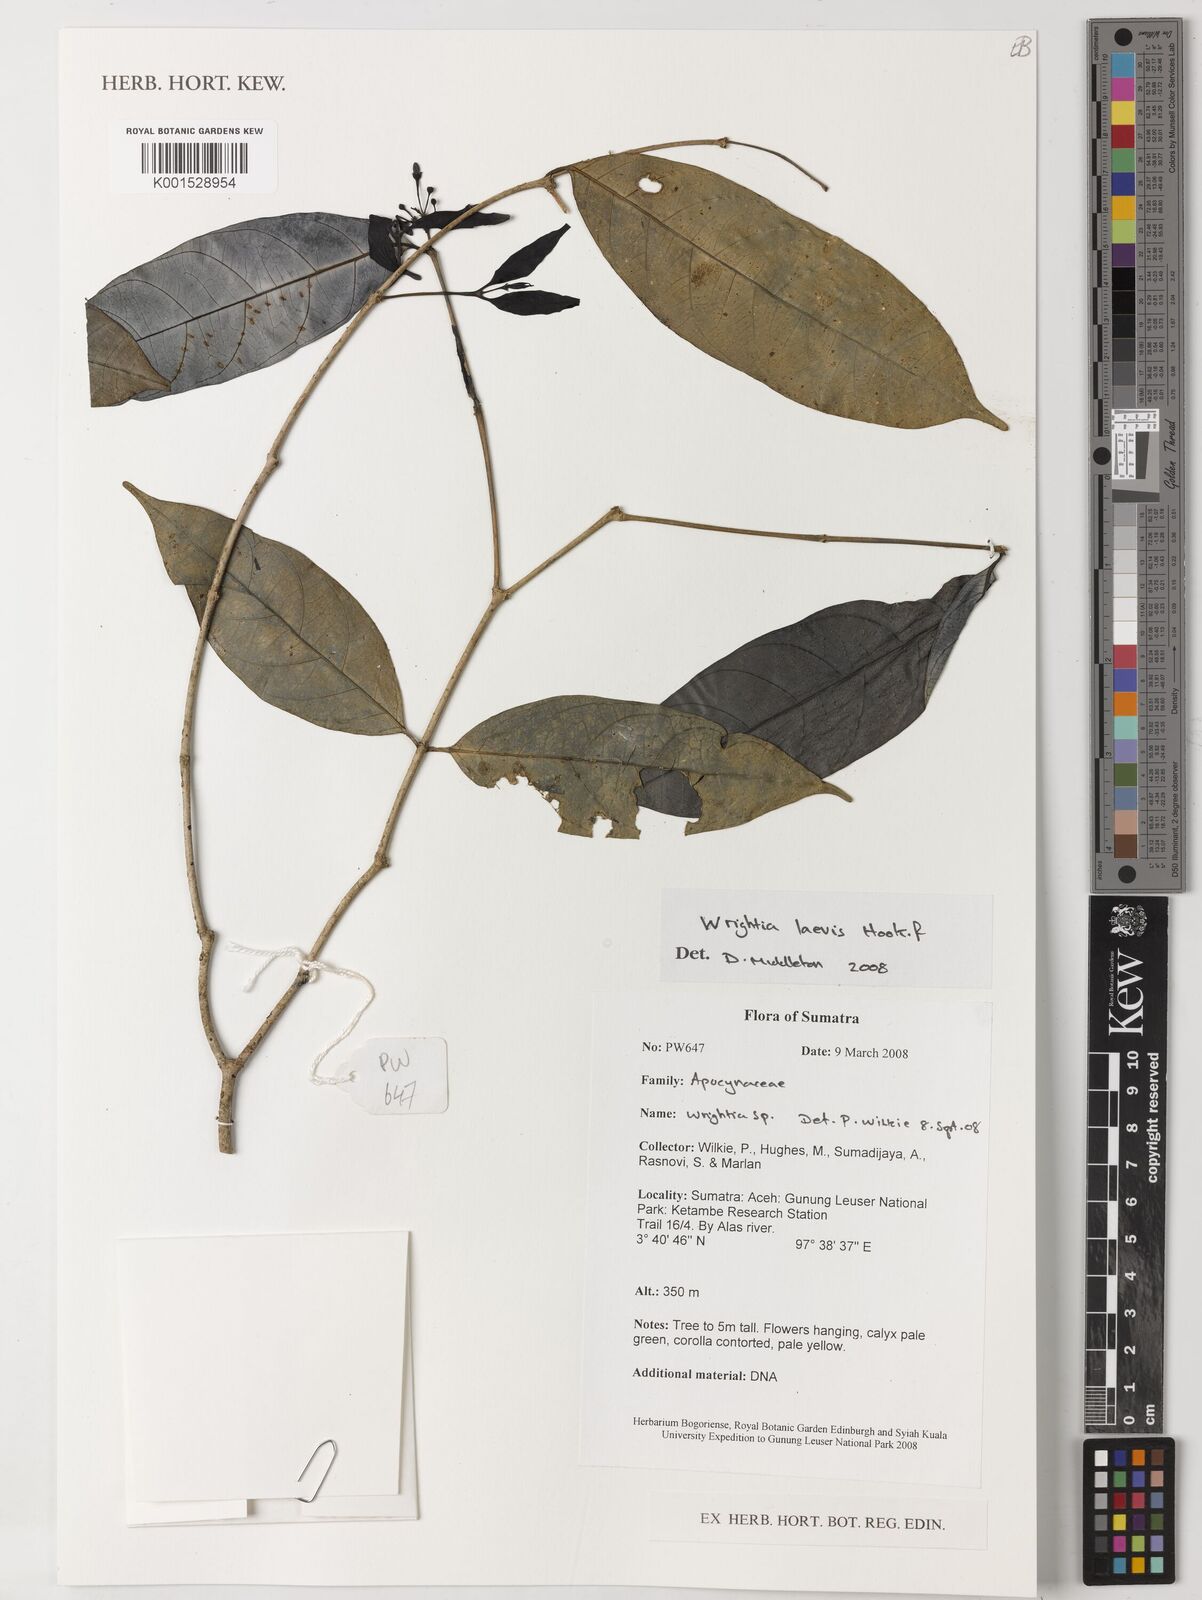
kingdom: Plantae
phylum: Tracheophyta
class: Magnoliopsida
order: Gentianales
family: Apocynaceae
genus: Wrightia
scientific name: Wrightia laevis
